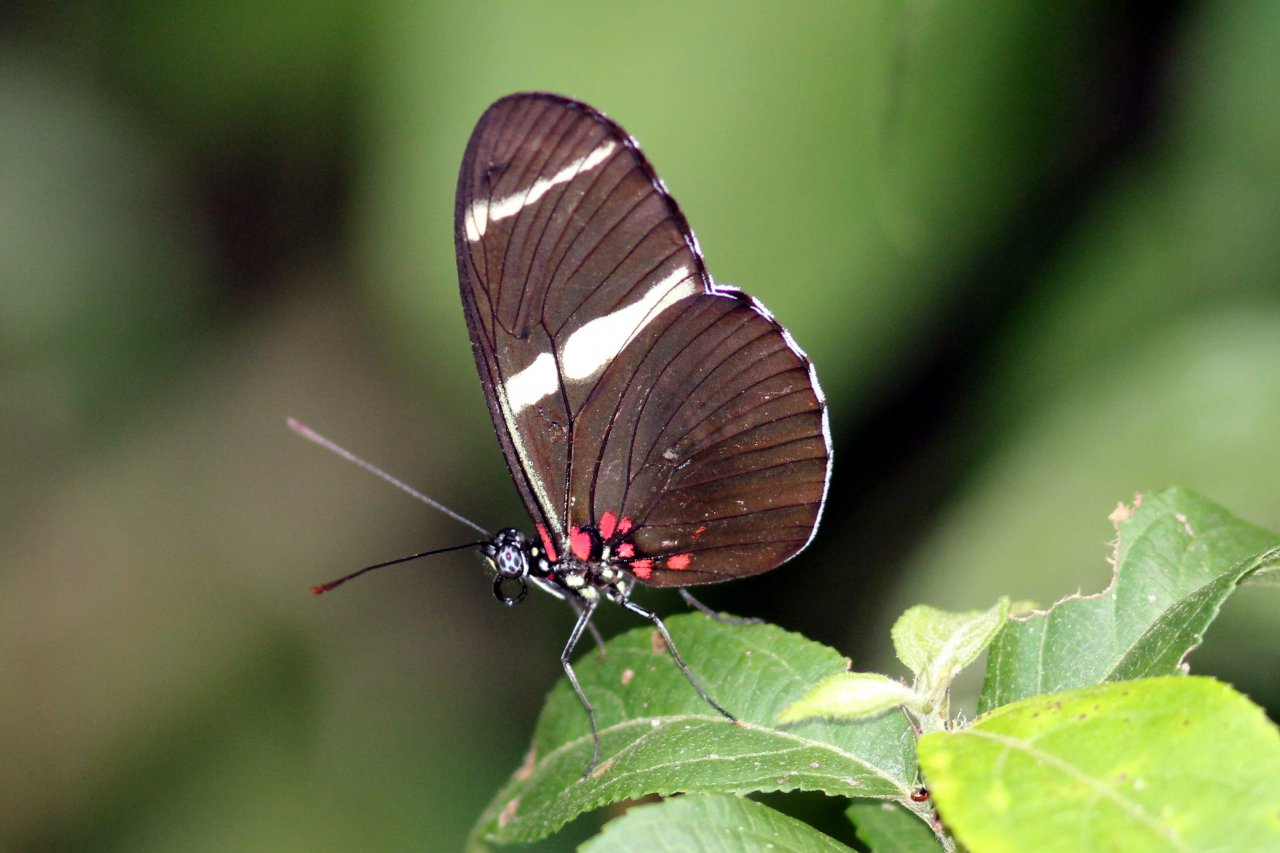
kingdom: Animalia
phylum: Arthropoda
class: Insecta
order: Lepidoptera
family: Nymphalidae
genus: Heliconius
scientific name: Heliconius sara
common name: Sara Longwing
